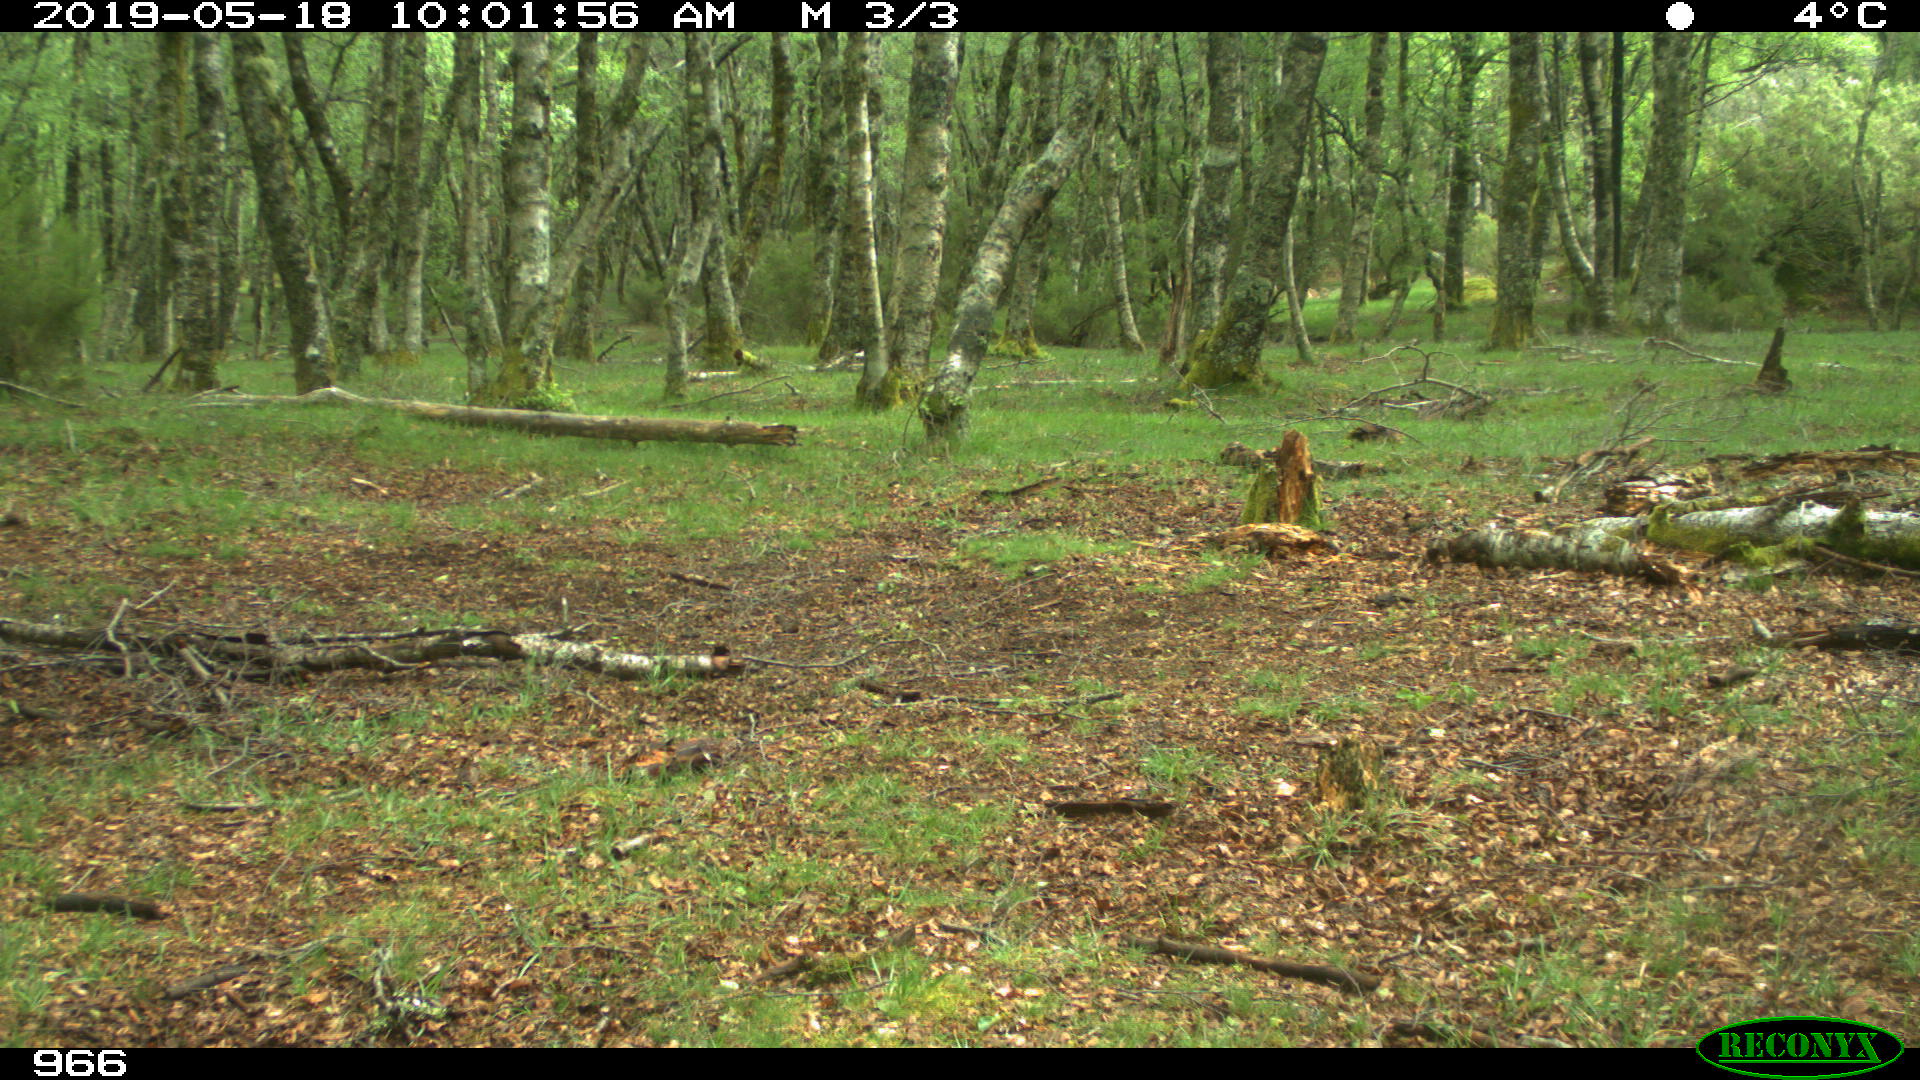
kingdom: Animalia
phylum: Chordata
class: Mammalia
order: Artiodactyla
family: Cervidae
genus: Capreolus
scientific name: Capreolus capreolus
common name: Western roe deer
